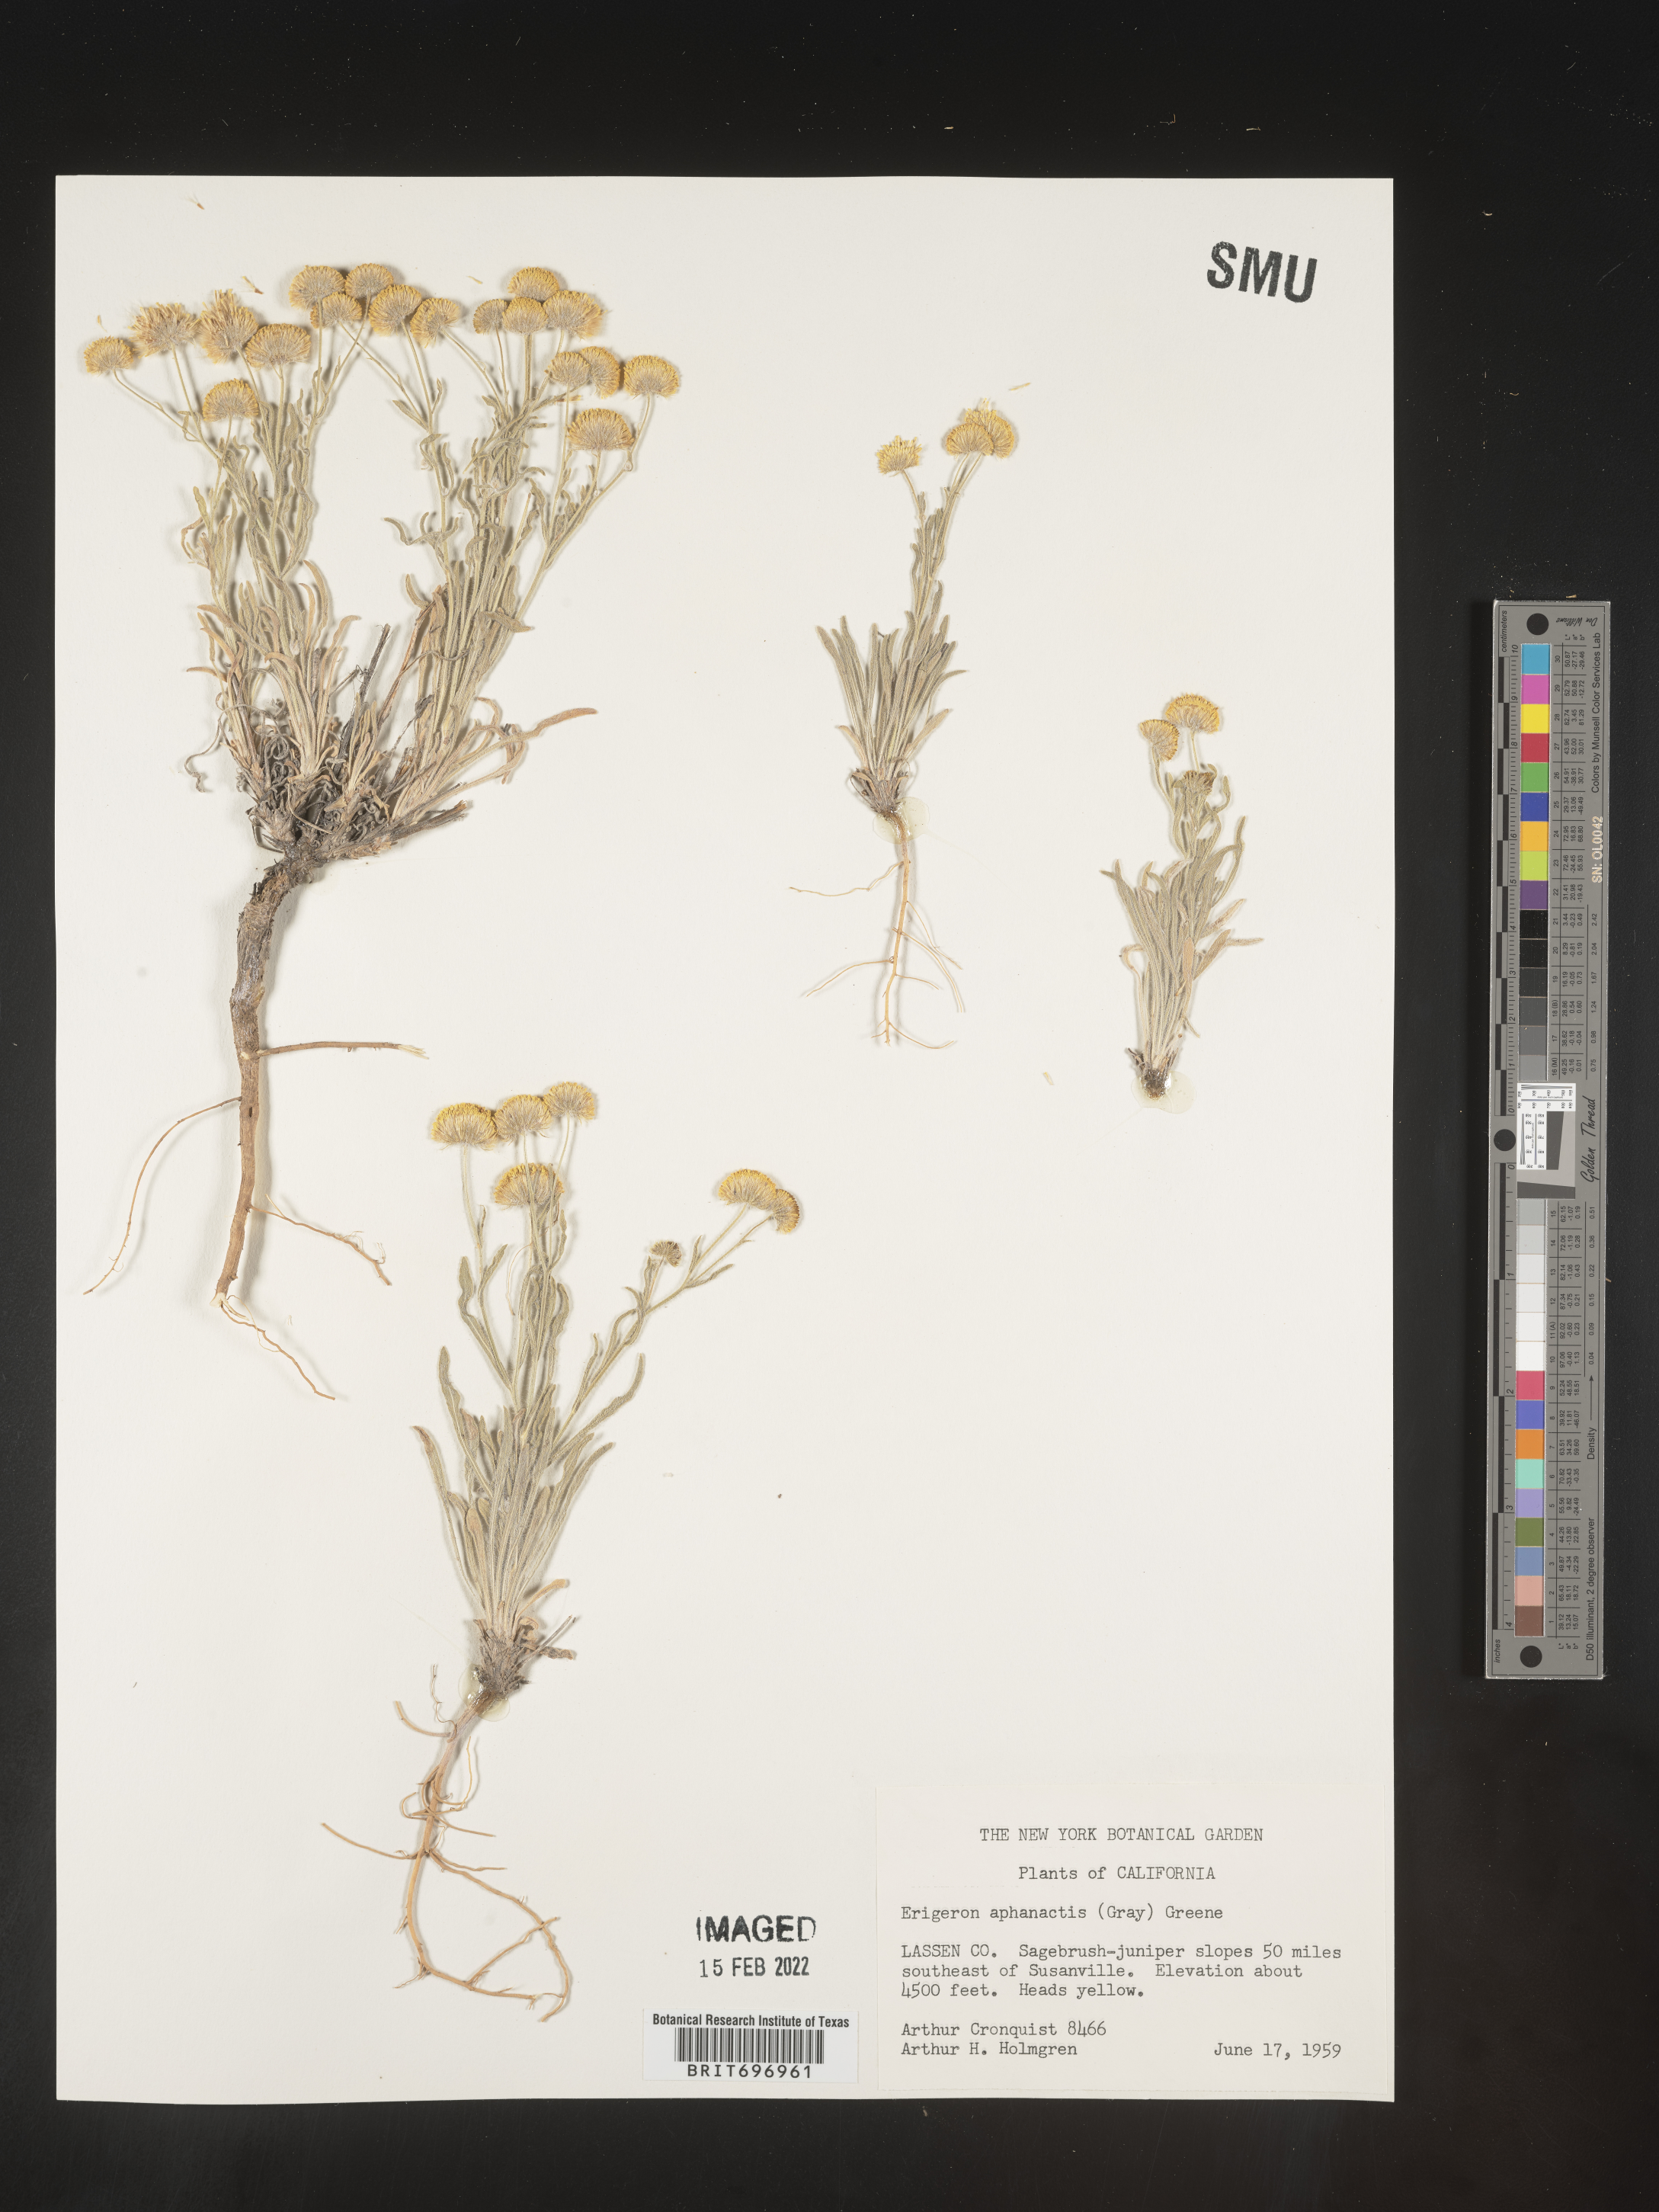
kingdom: Plantae
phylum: Tracheophyta
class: Magnoliopsida
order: Asterales
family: Asteraceae
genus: Erigeron
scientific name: Erigeron aphanactis
